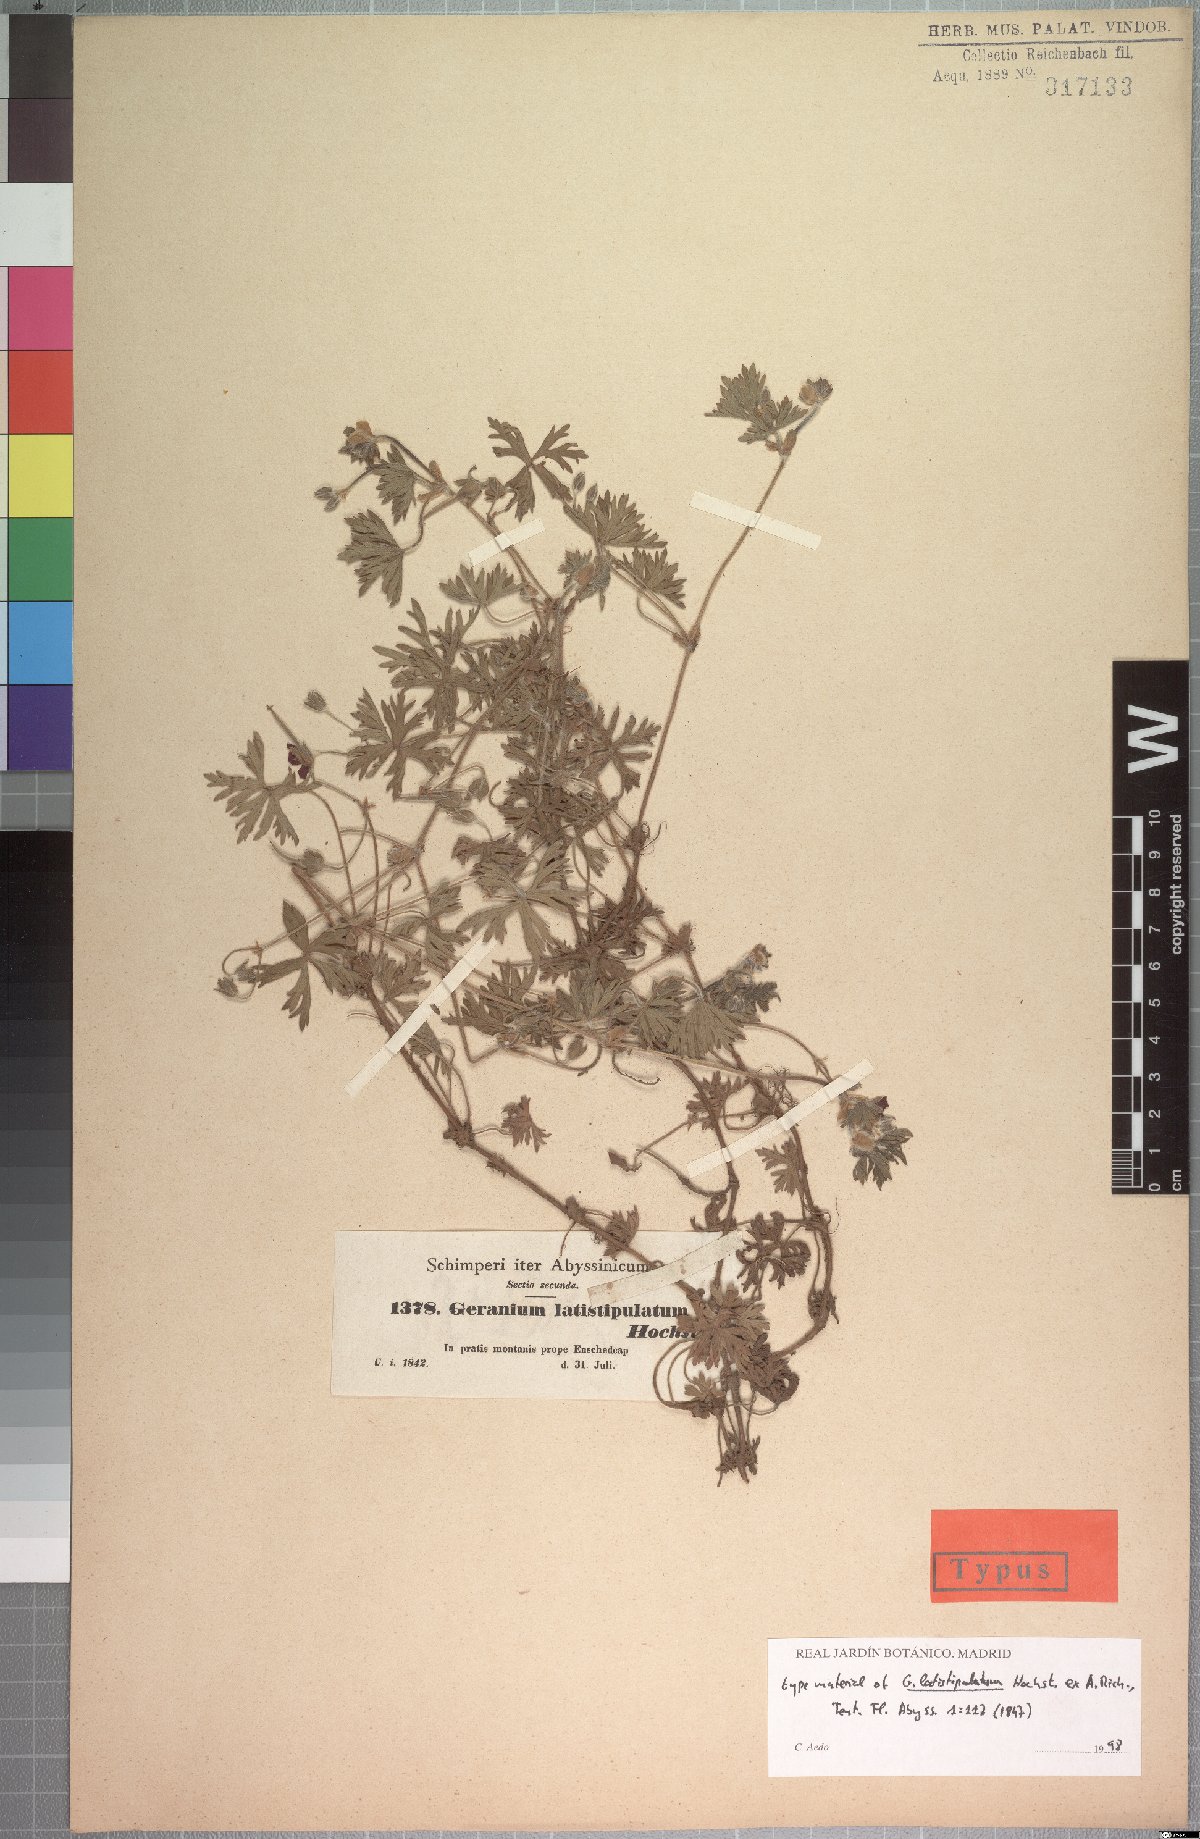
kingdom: Plantae
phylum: Tracheophyta
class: Magnoliopsida
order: Geraniales
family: Geraniaceae
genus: Geranium
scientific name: Geranium arabicum
